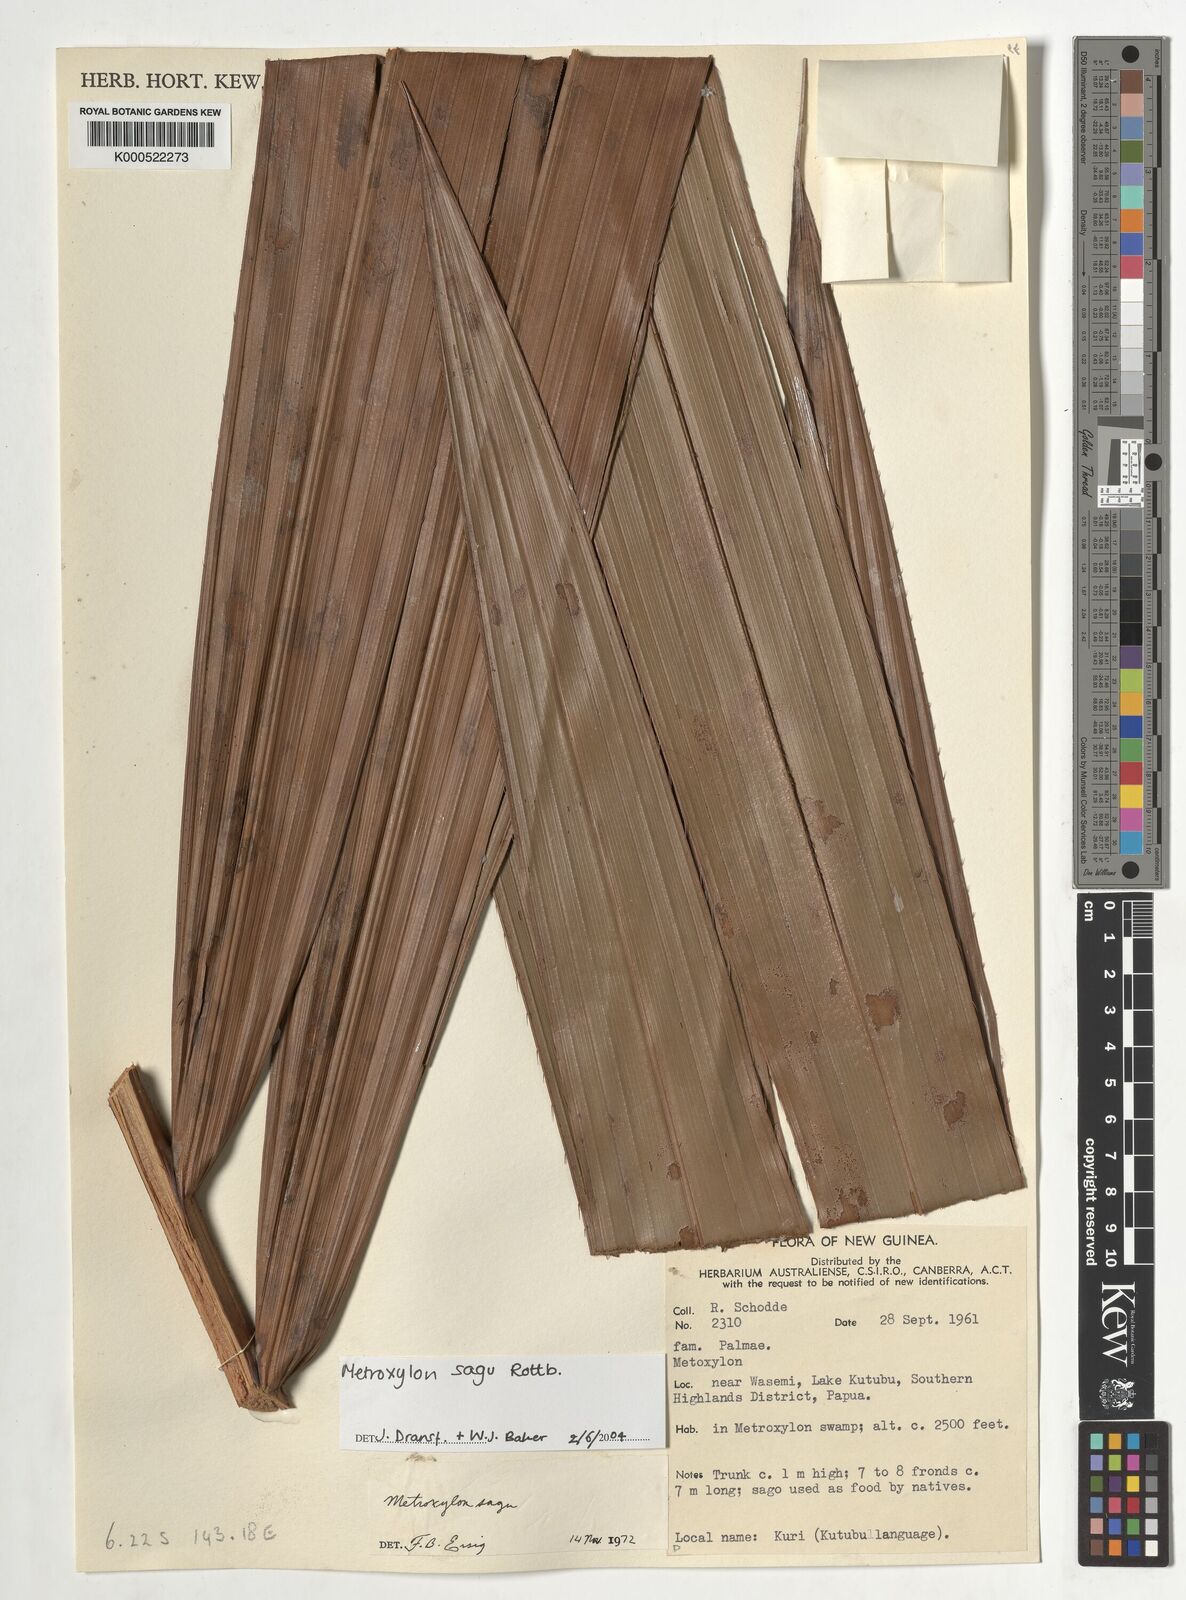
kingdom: Plantae
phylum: Tracheophyta
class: Liliopsida
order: Arecales
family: Arecaceae
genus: Metroxylon
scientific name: Metroxylon sagu
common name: Sago palm
